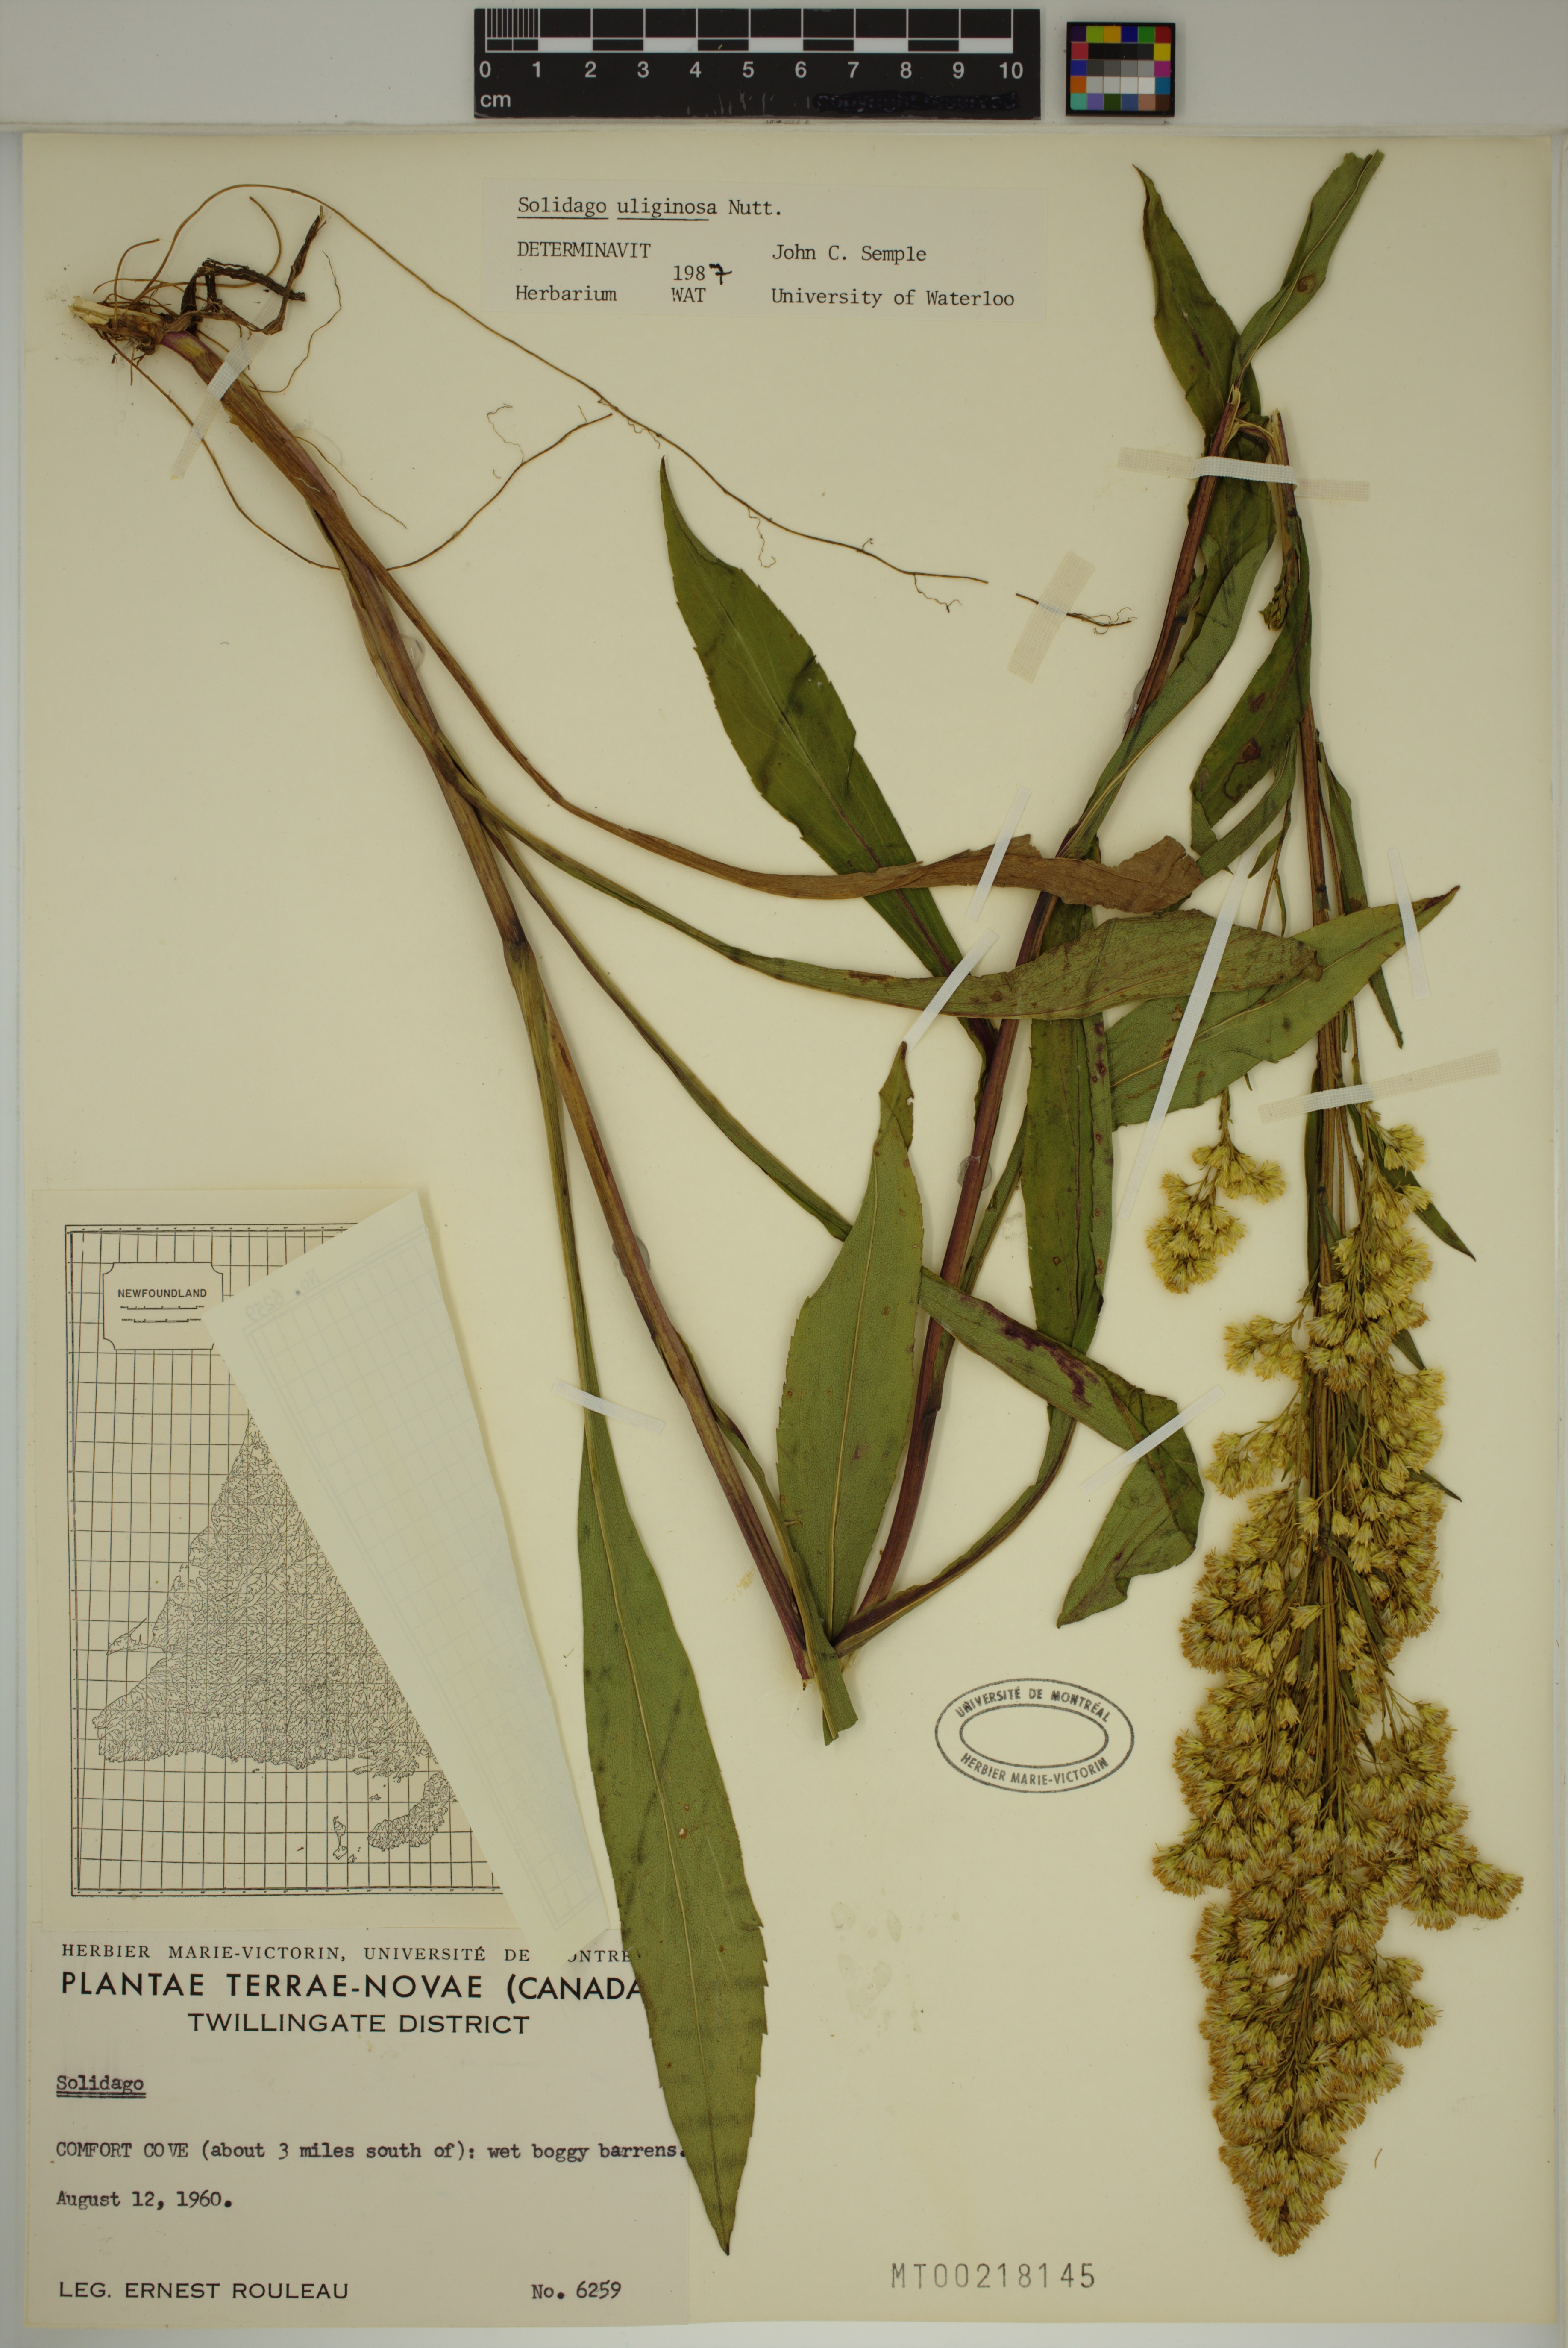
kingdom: Plantae
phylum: Tracheophyta
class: Magnoliopsida
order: Asterales
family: Asteraceae
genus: Solidago
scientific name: Solidago uliginosa
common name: Bog goldenrod
